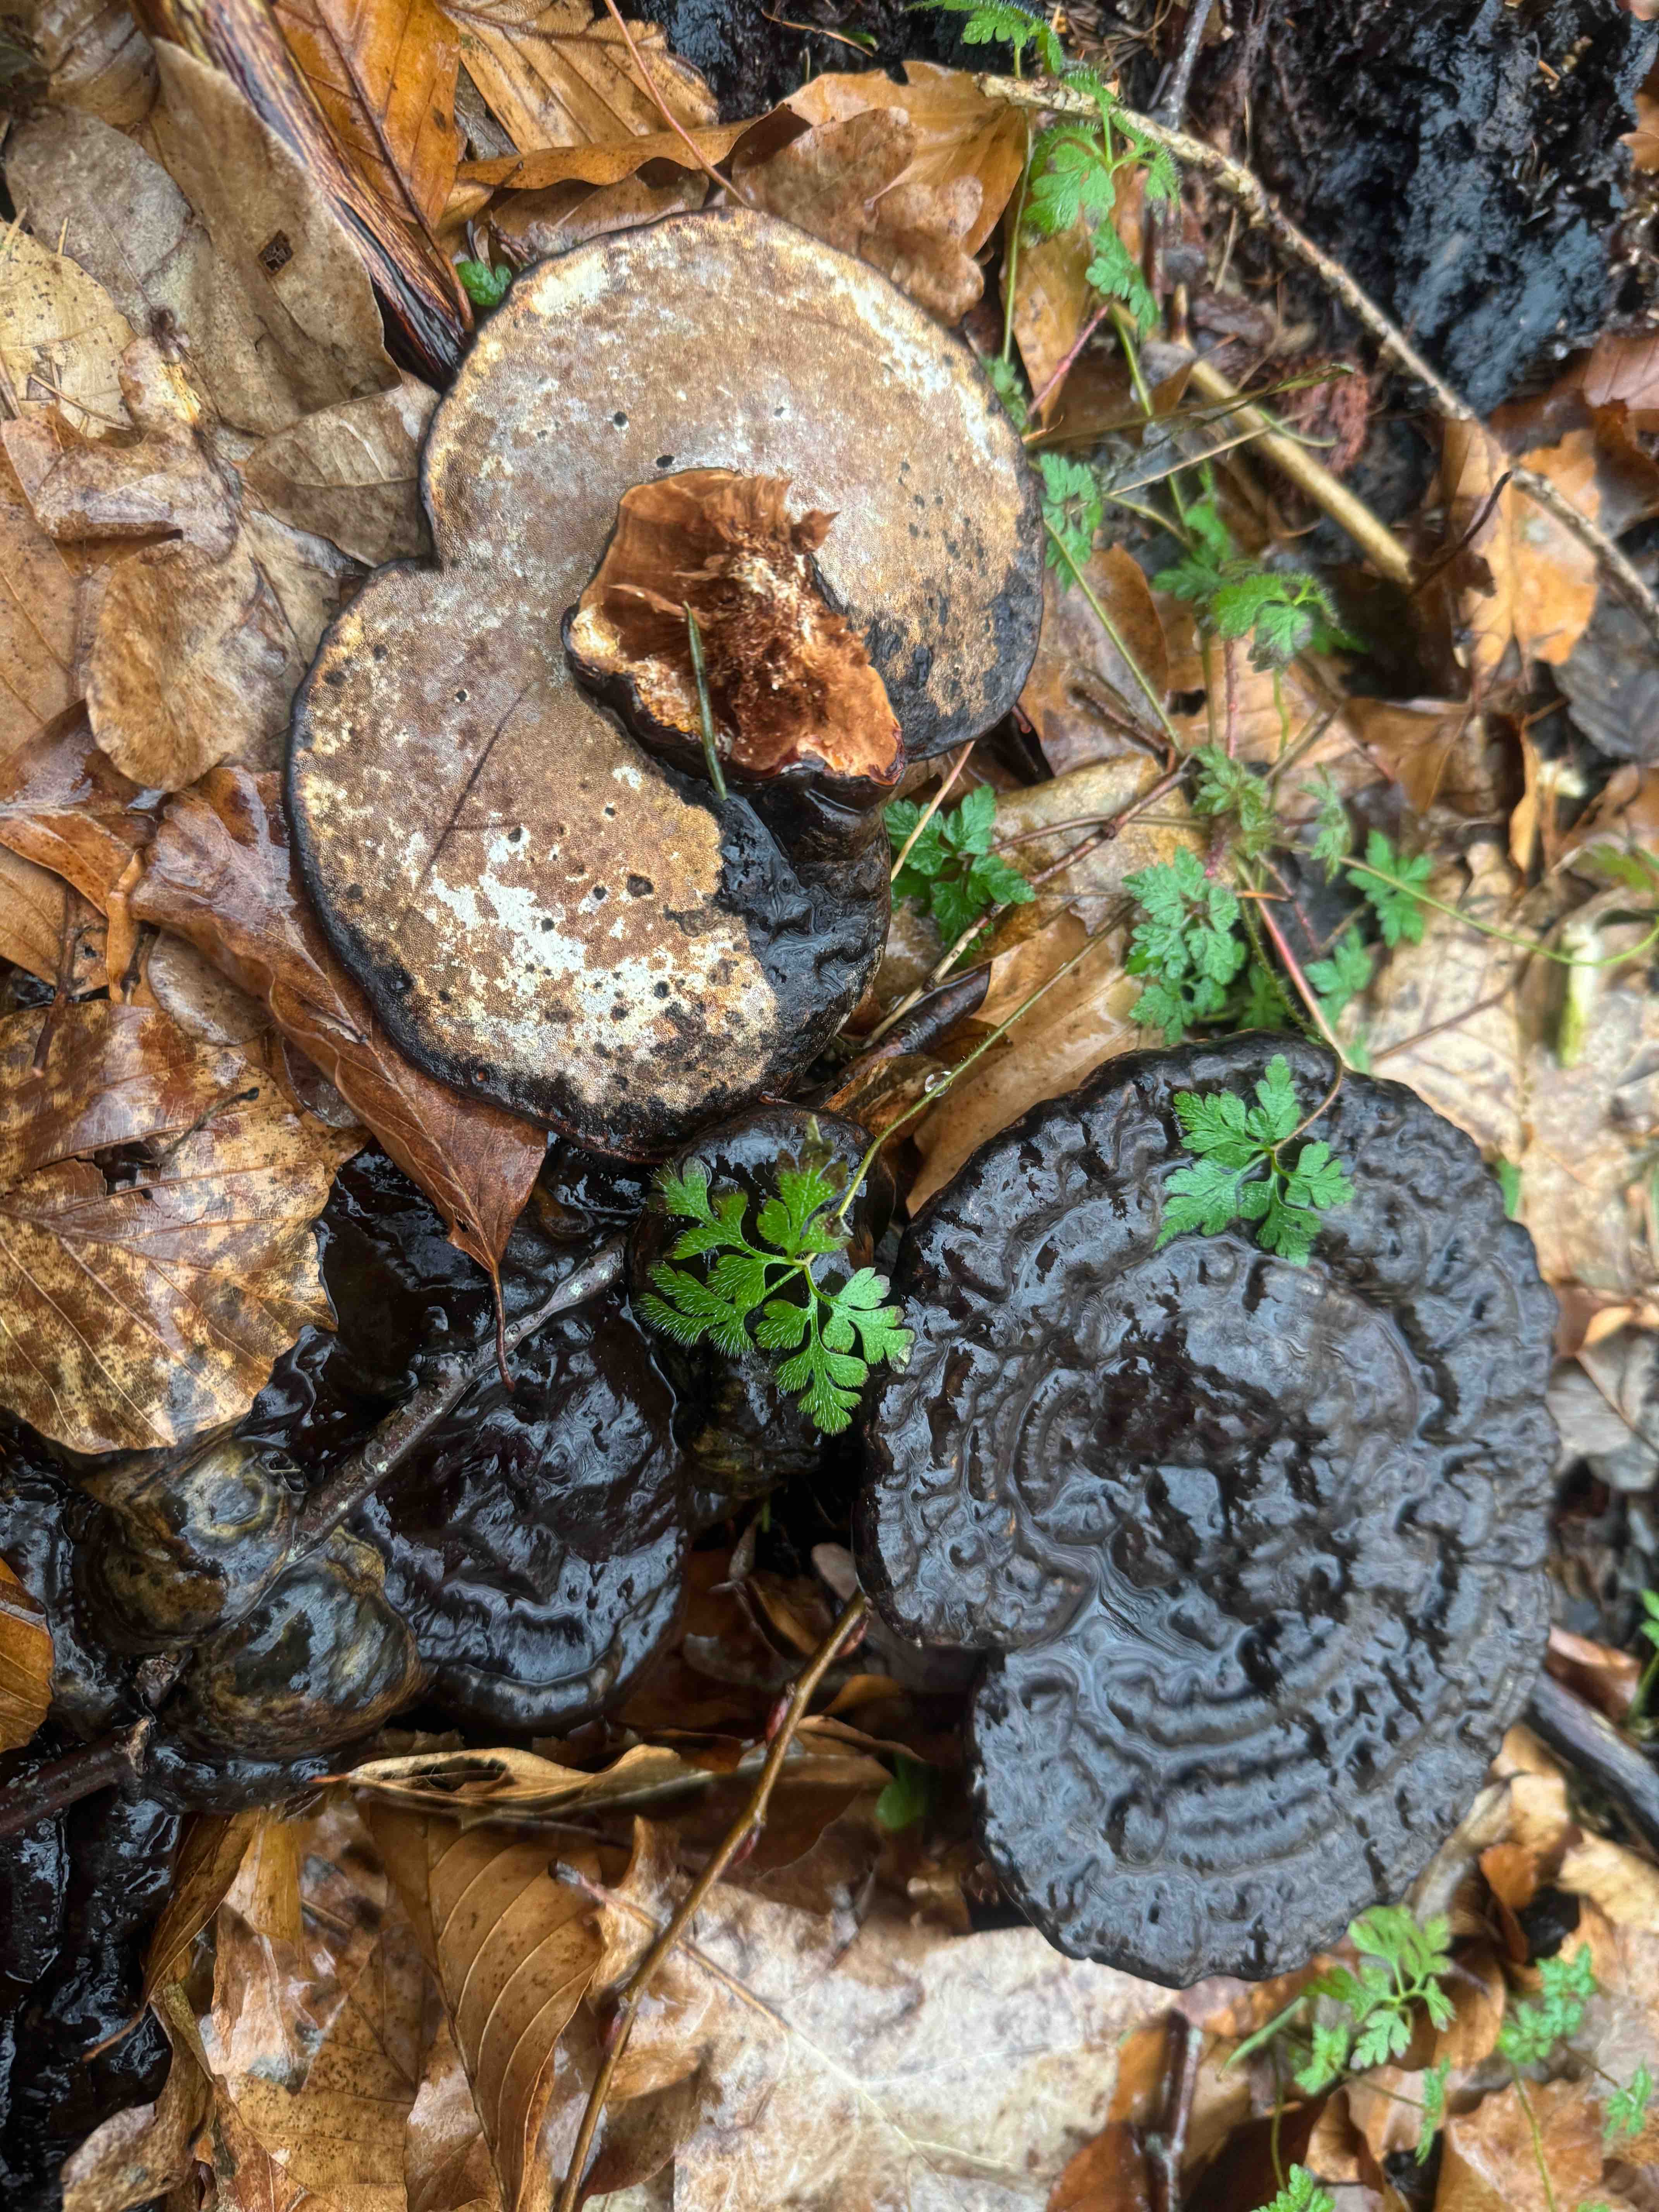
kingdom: Fungi
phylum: Basidiomycota
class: Agaricomycetes
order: Polyporales
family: Polyporaceae
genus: Ganoderma
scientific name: Ganoderma applanatum
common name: flad lakporesvamp
